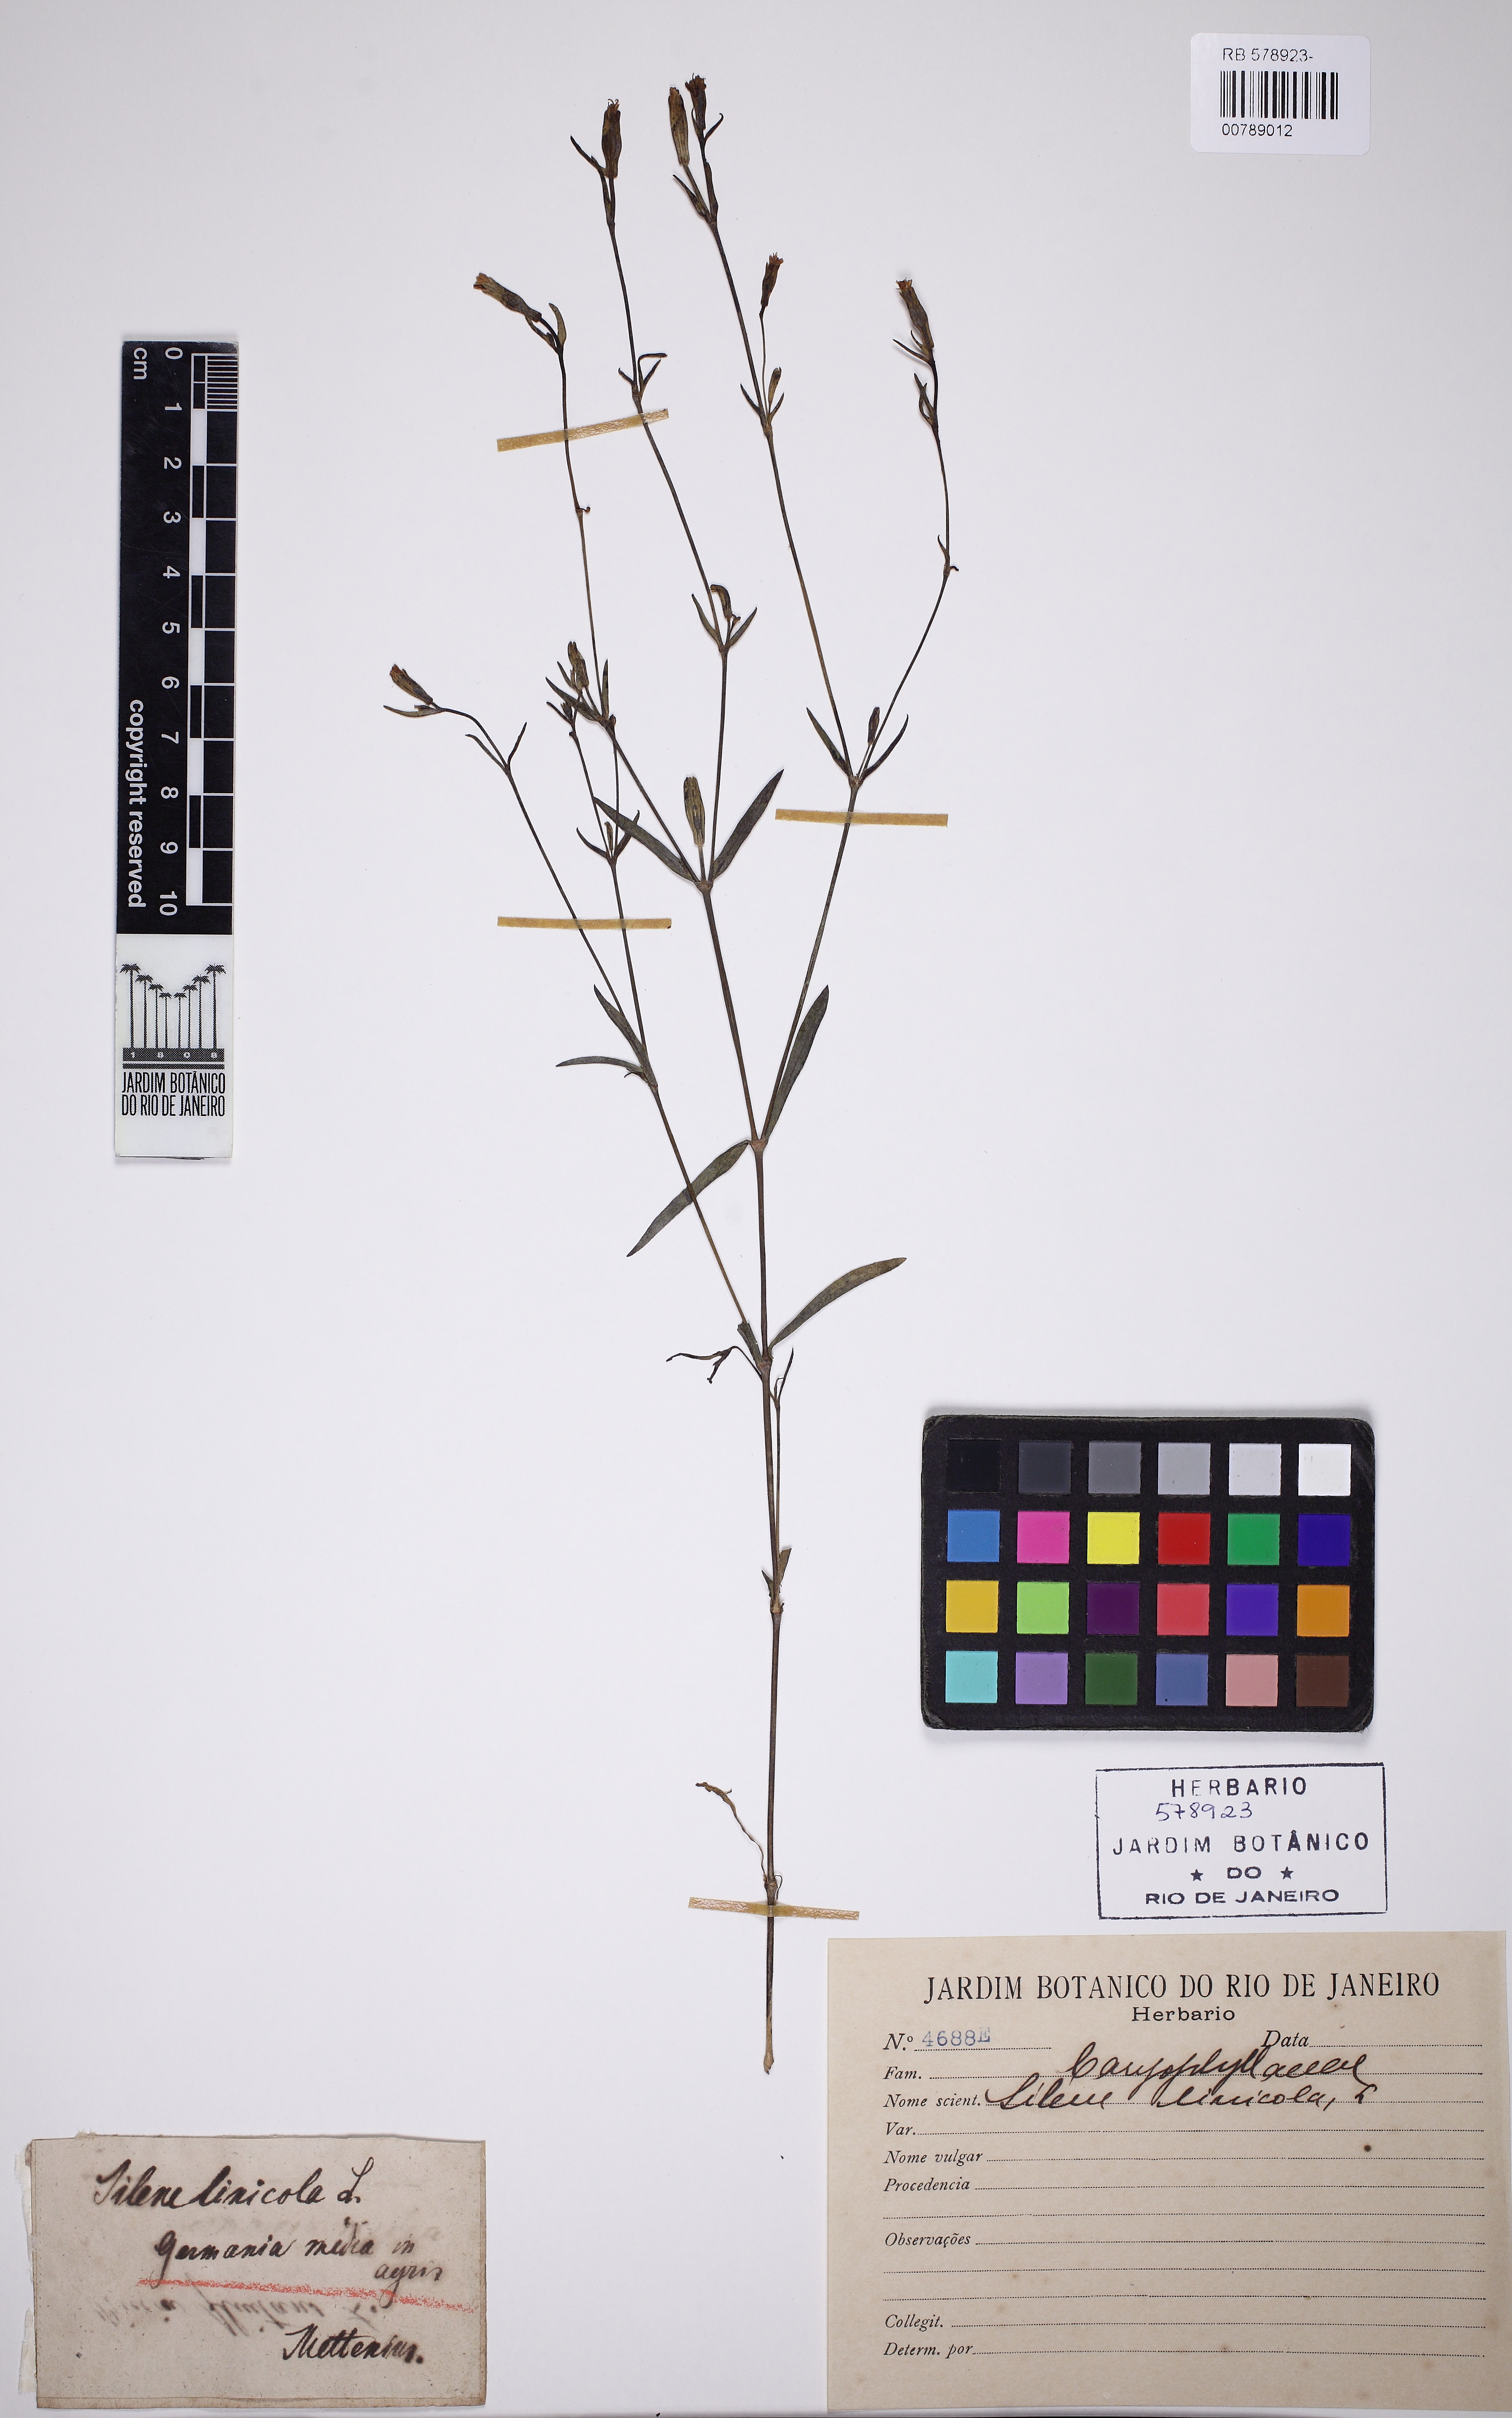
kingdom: Plantae
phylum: Tracheophyta
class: Magnoliopsida
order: Caryophyllales
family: Caryophyllaceae
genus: Silene
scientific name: Silene linicola
